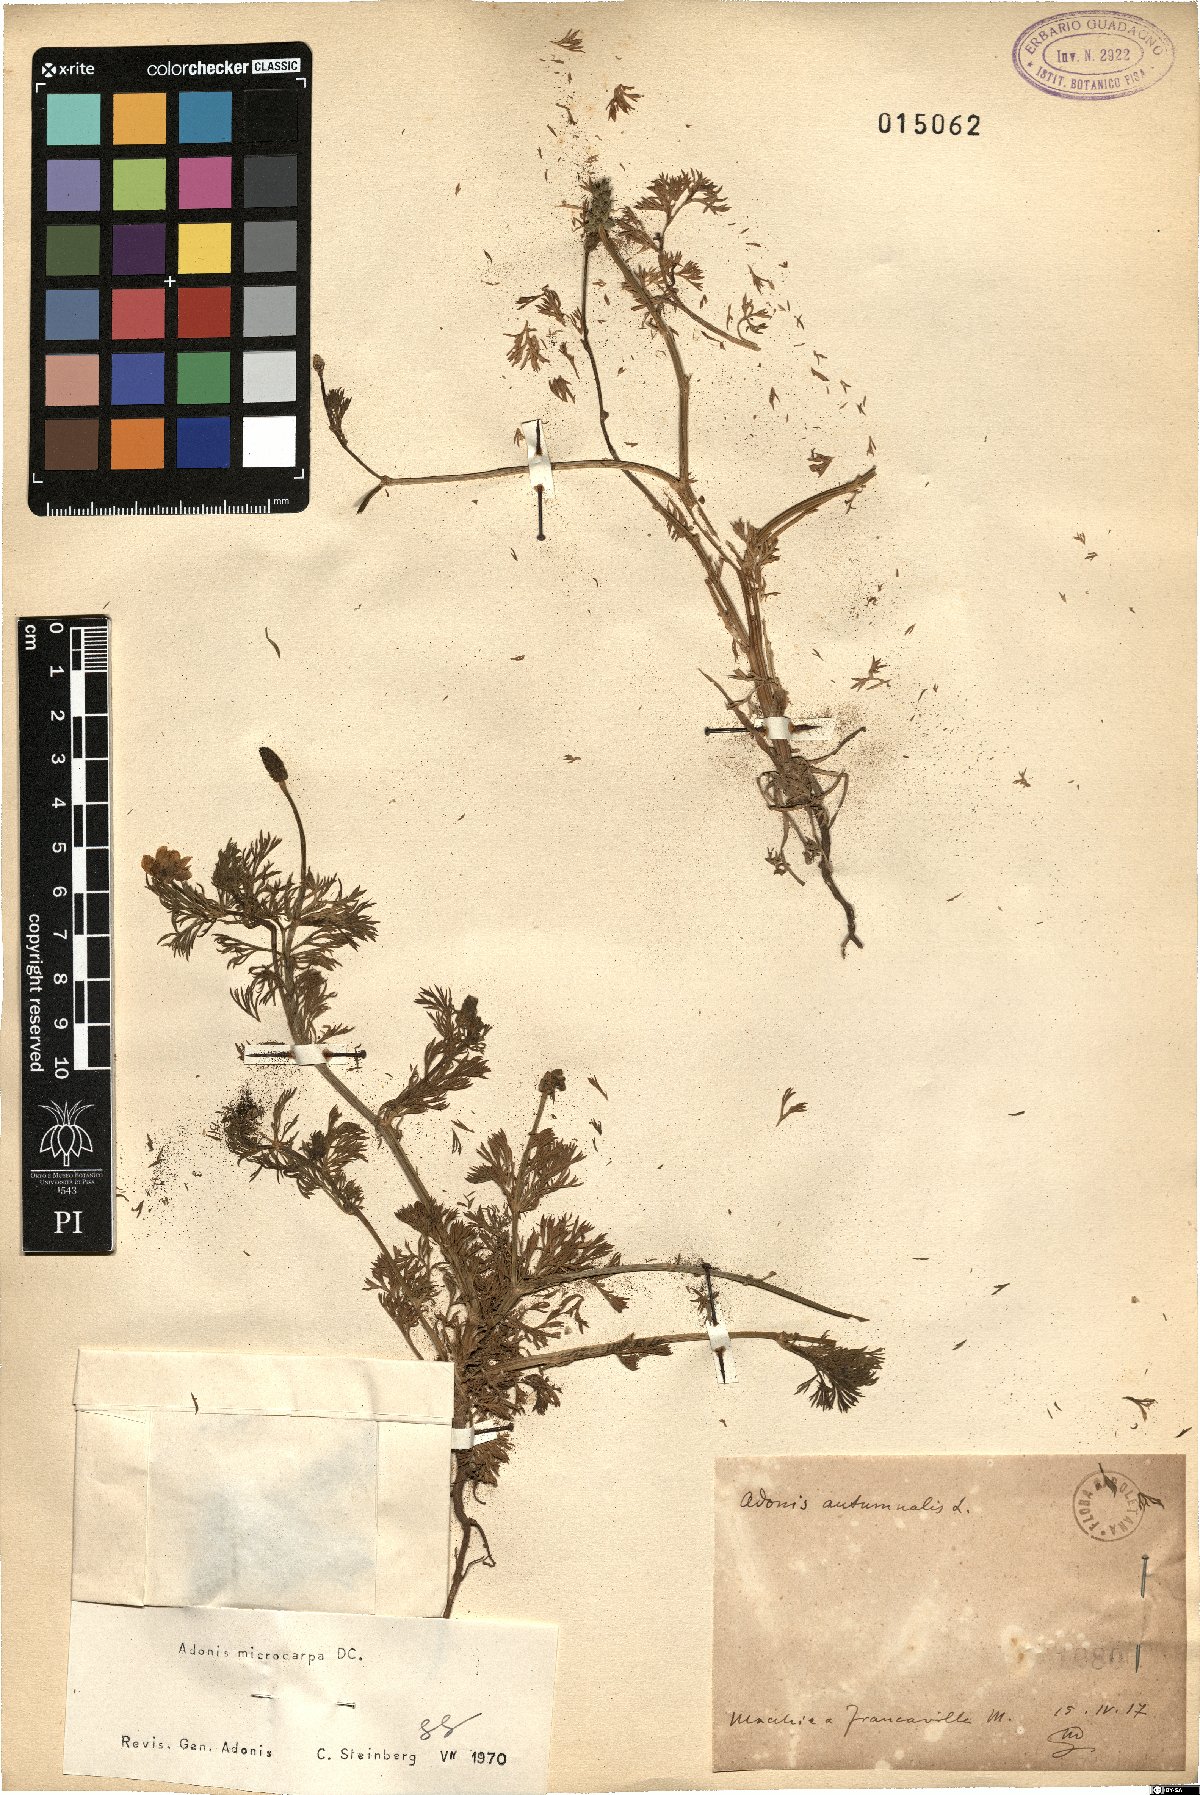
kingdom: Plantae
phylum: Tracheophyta
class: Magnoliopsida
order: Ranunculales
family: Ranunculaceae
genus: Adonis
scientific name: Adonis microcarpa
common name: Pheasant's-eye
